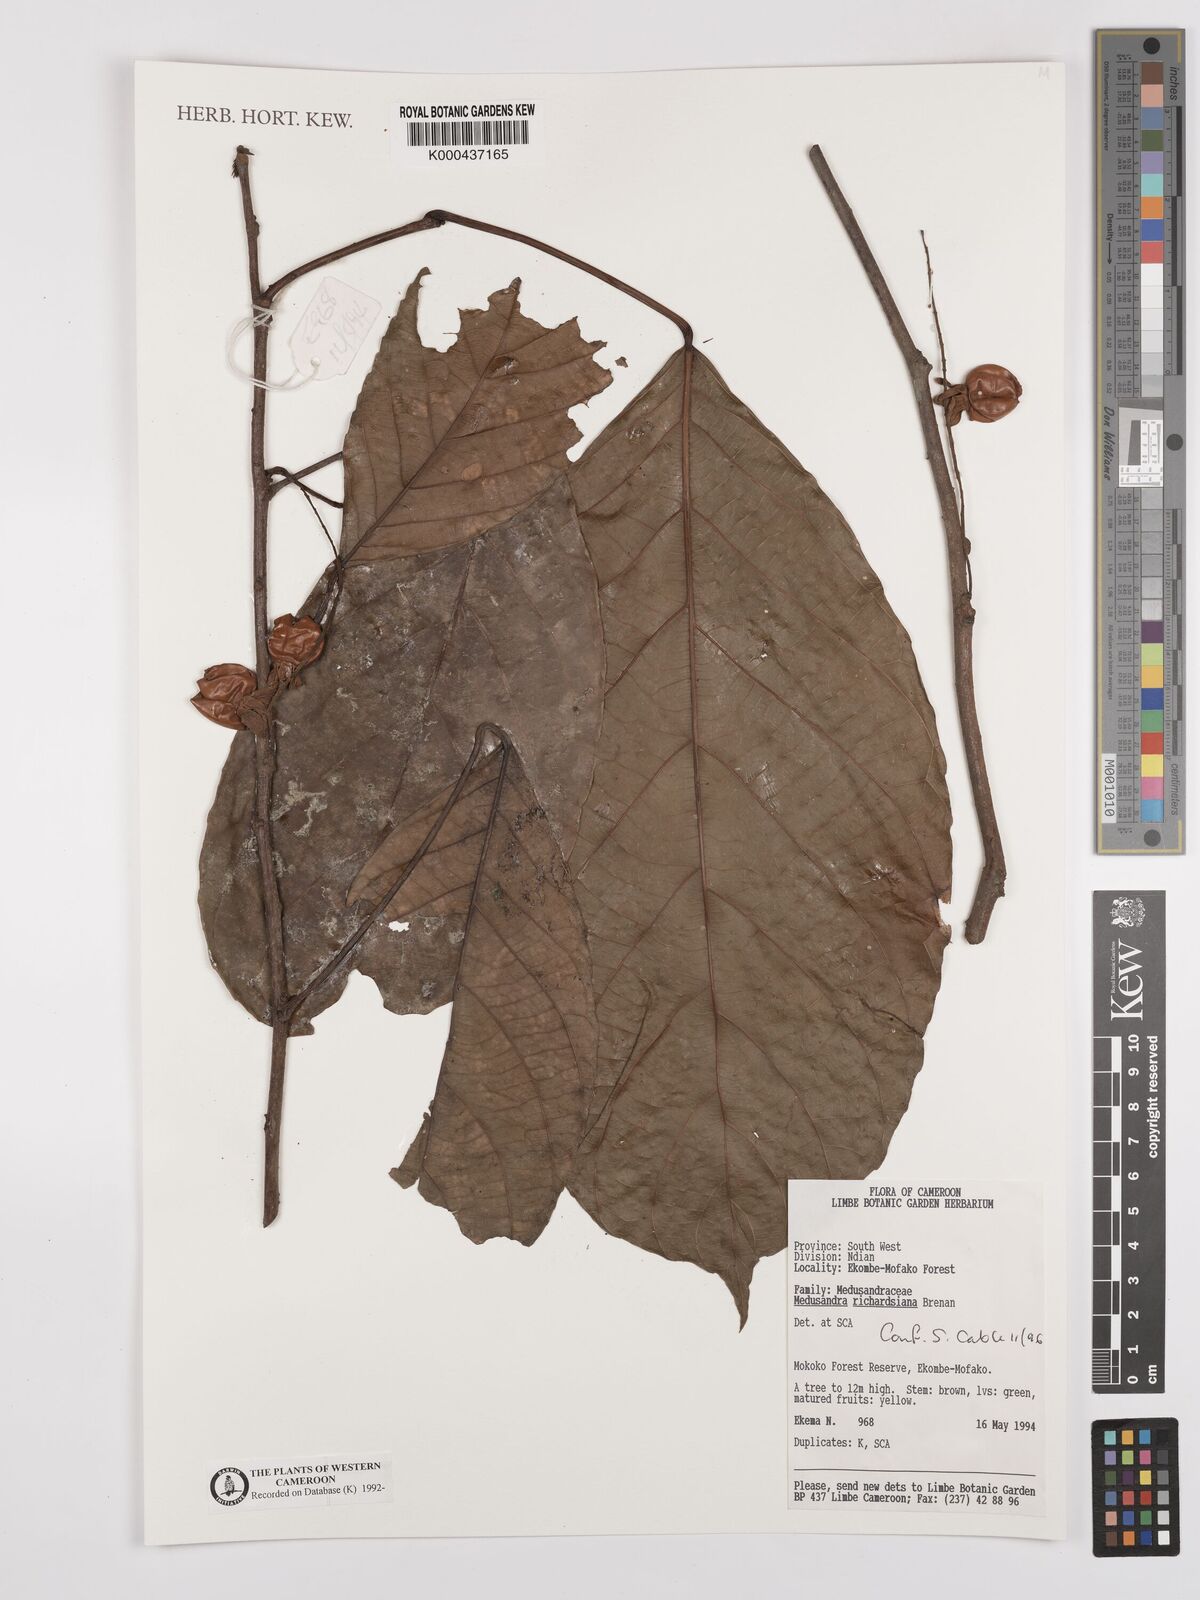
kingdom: Plantae
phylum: Tracheophyta
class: Magnoliopsida
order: Saxifragales
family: Peridiscaceae
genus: Medusandra
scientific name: Medusandra richardsiana
